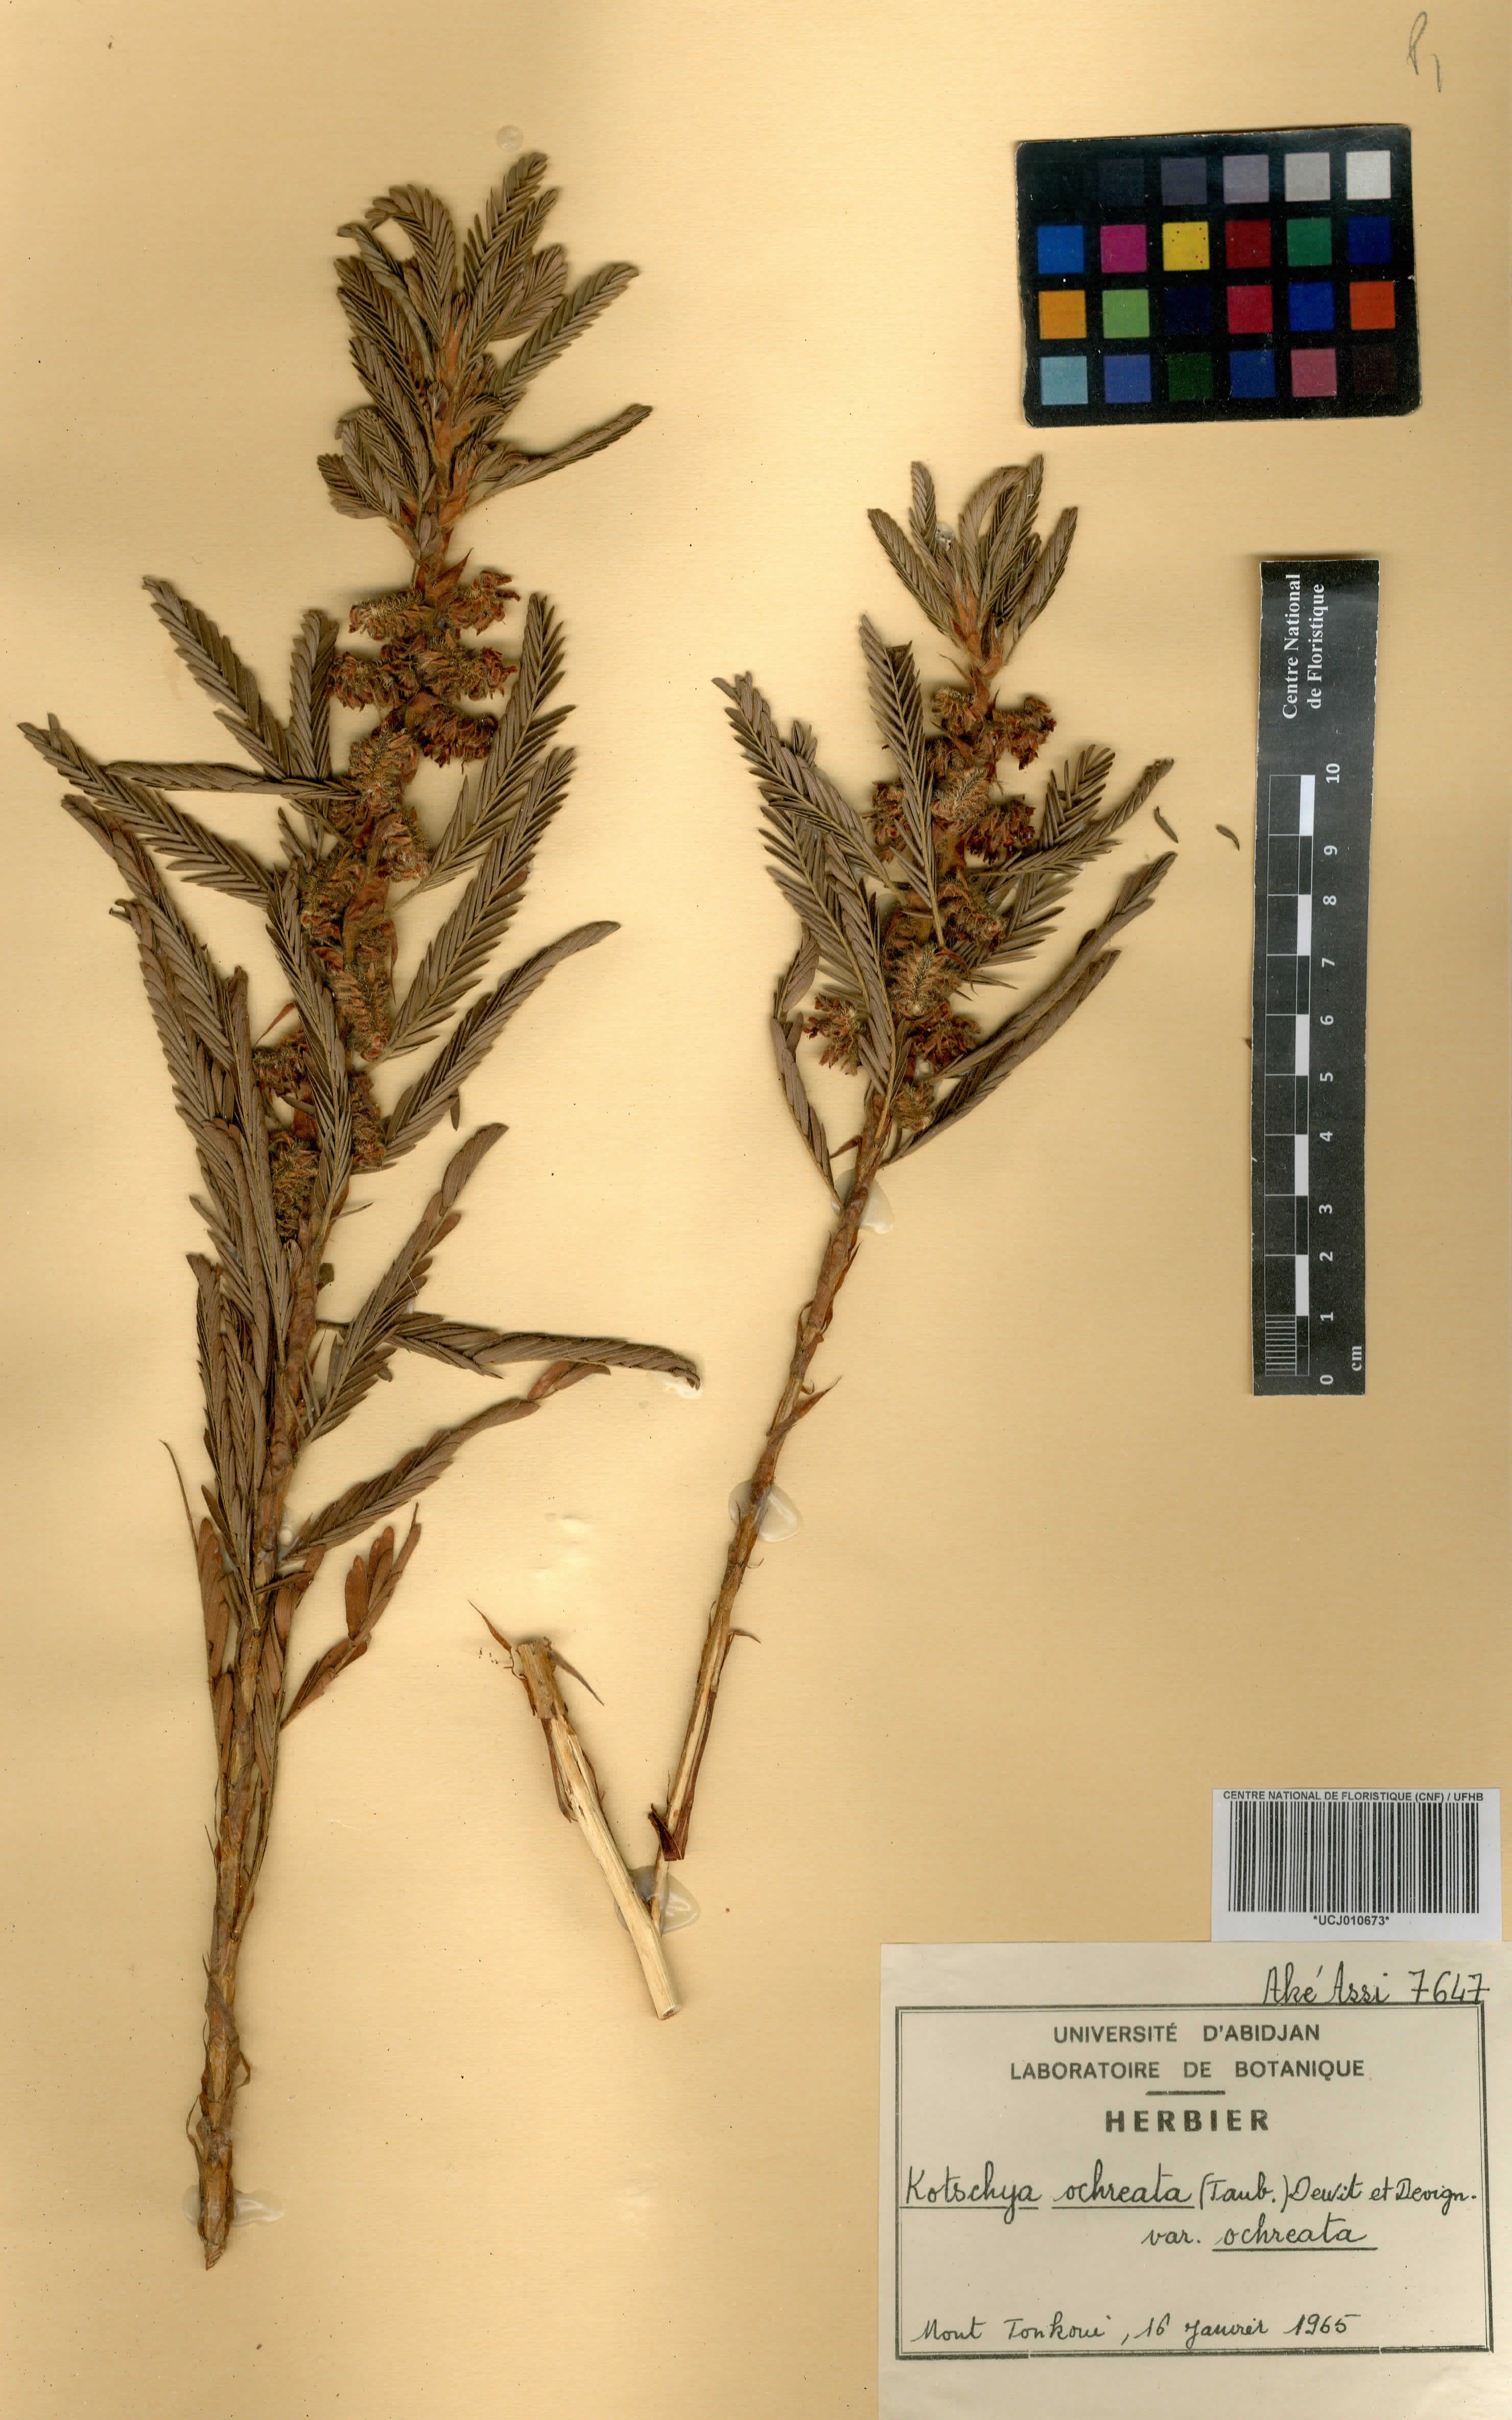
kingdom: Plantae
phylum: Tracheophyta
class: Magnoliopsida
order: Fabales
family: Fabaceae
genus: Kotschya
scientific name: Kotschya ochreata
